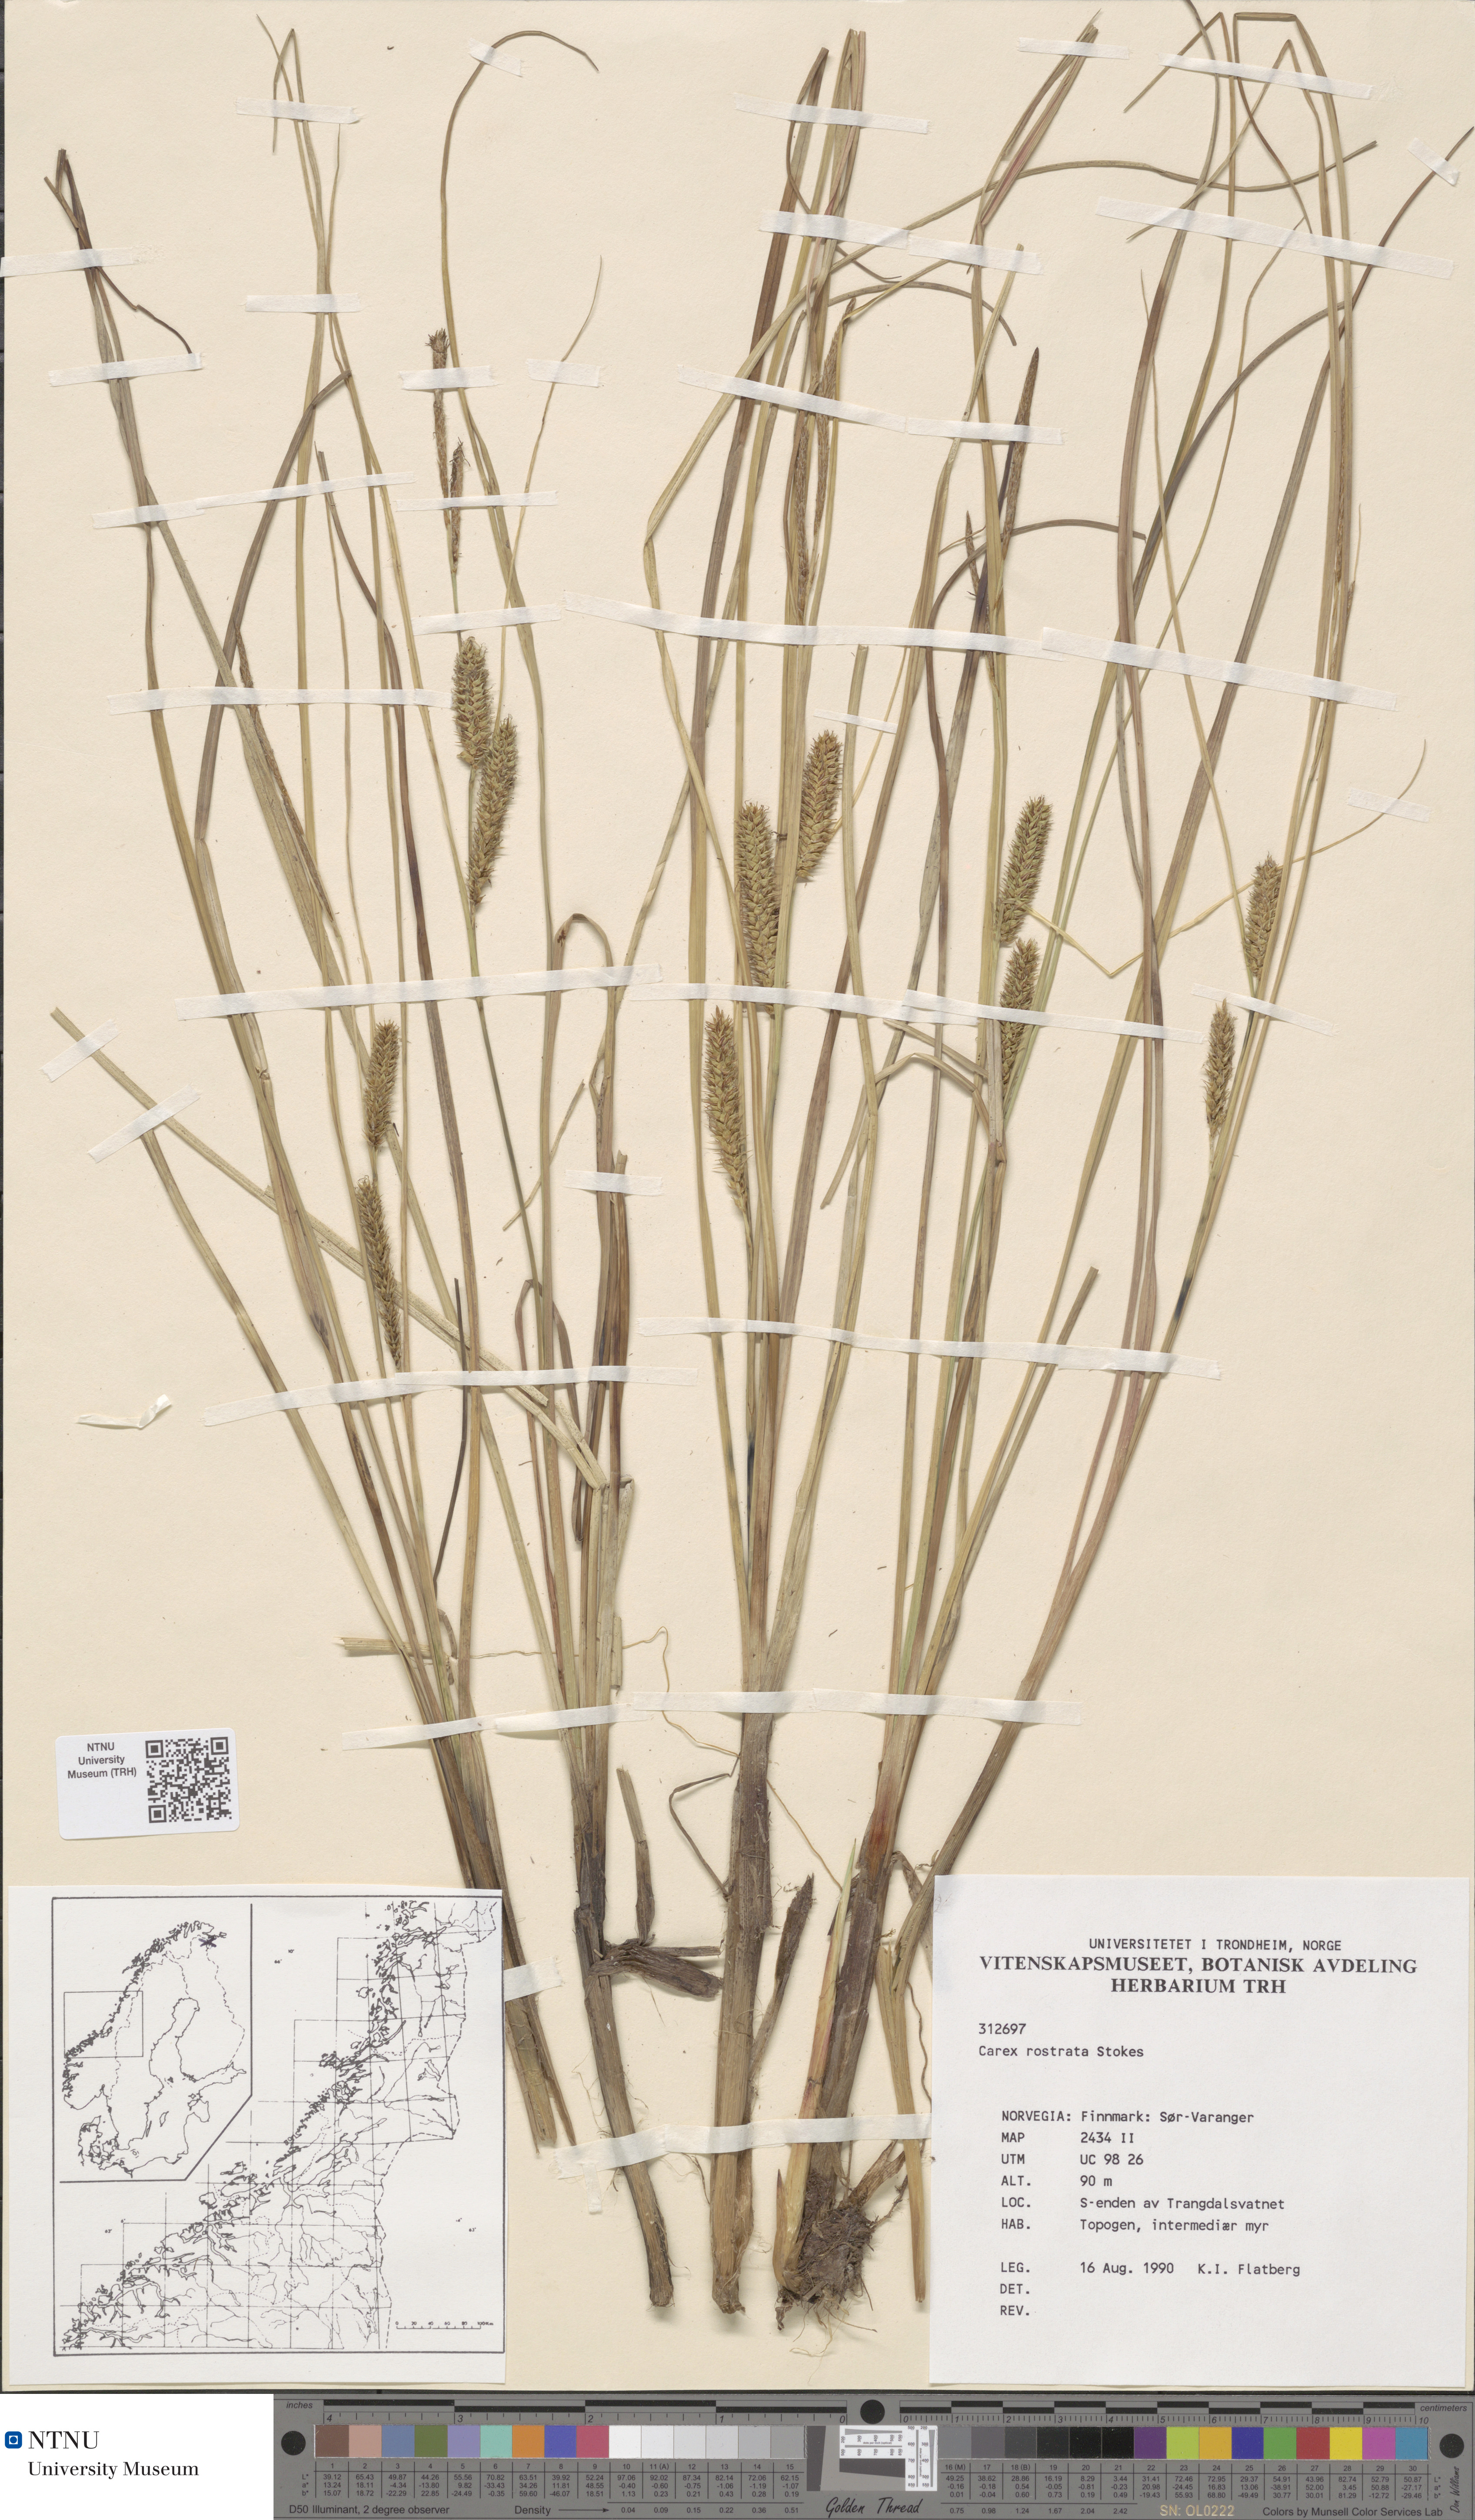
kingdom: Plantae
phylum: Tracheophyta
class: Liliopsida
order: Poales
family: Cyperaceae
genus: Carex
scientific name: Carex rostrata
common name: Bottle sedge
